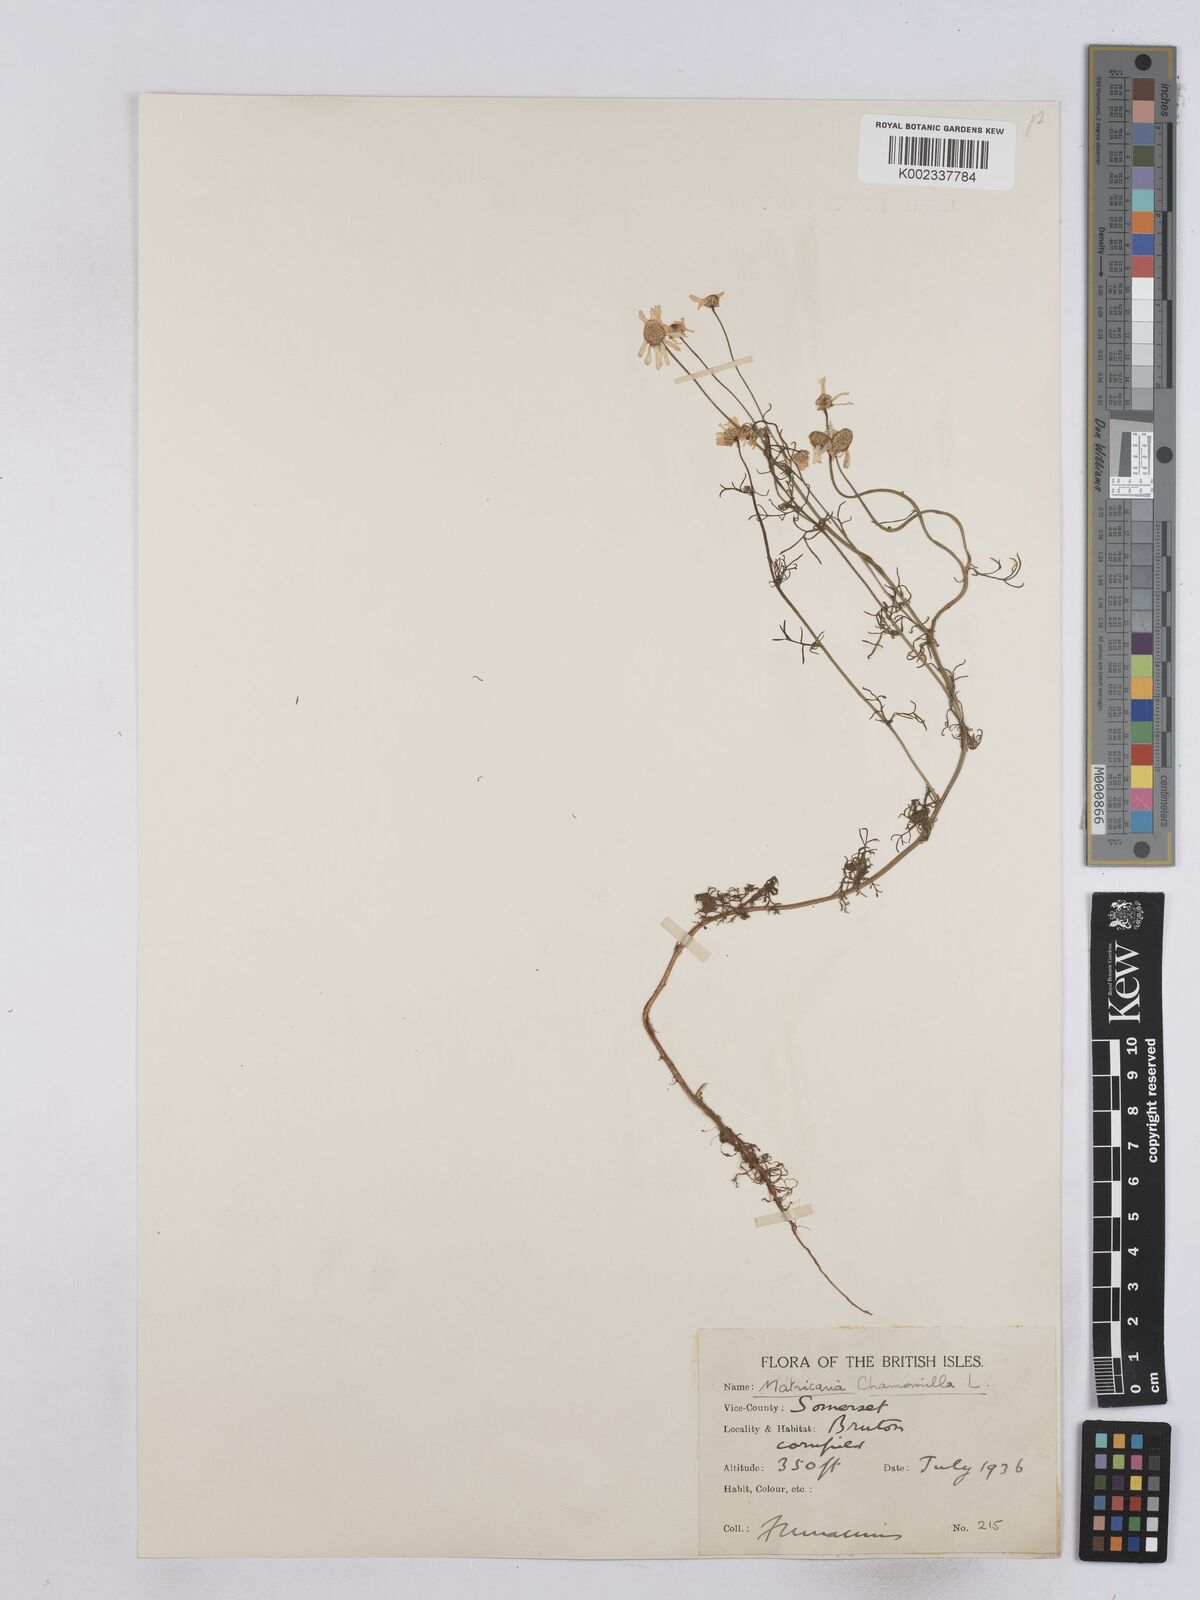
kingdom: Plantae
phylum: Tracheophyta
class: Magnoliopsida
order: Asterales
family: Asteraceae
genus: Matricaria
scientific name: Matricaria chamomilla
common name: Scented mayweed
